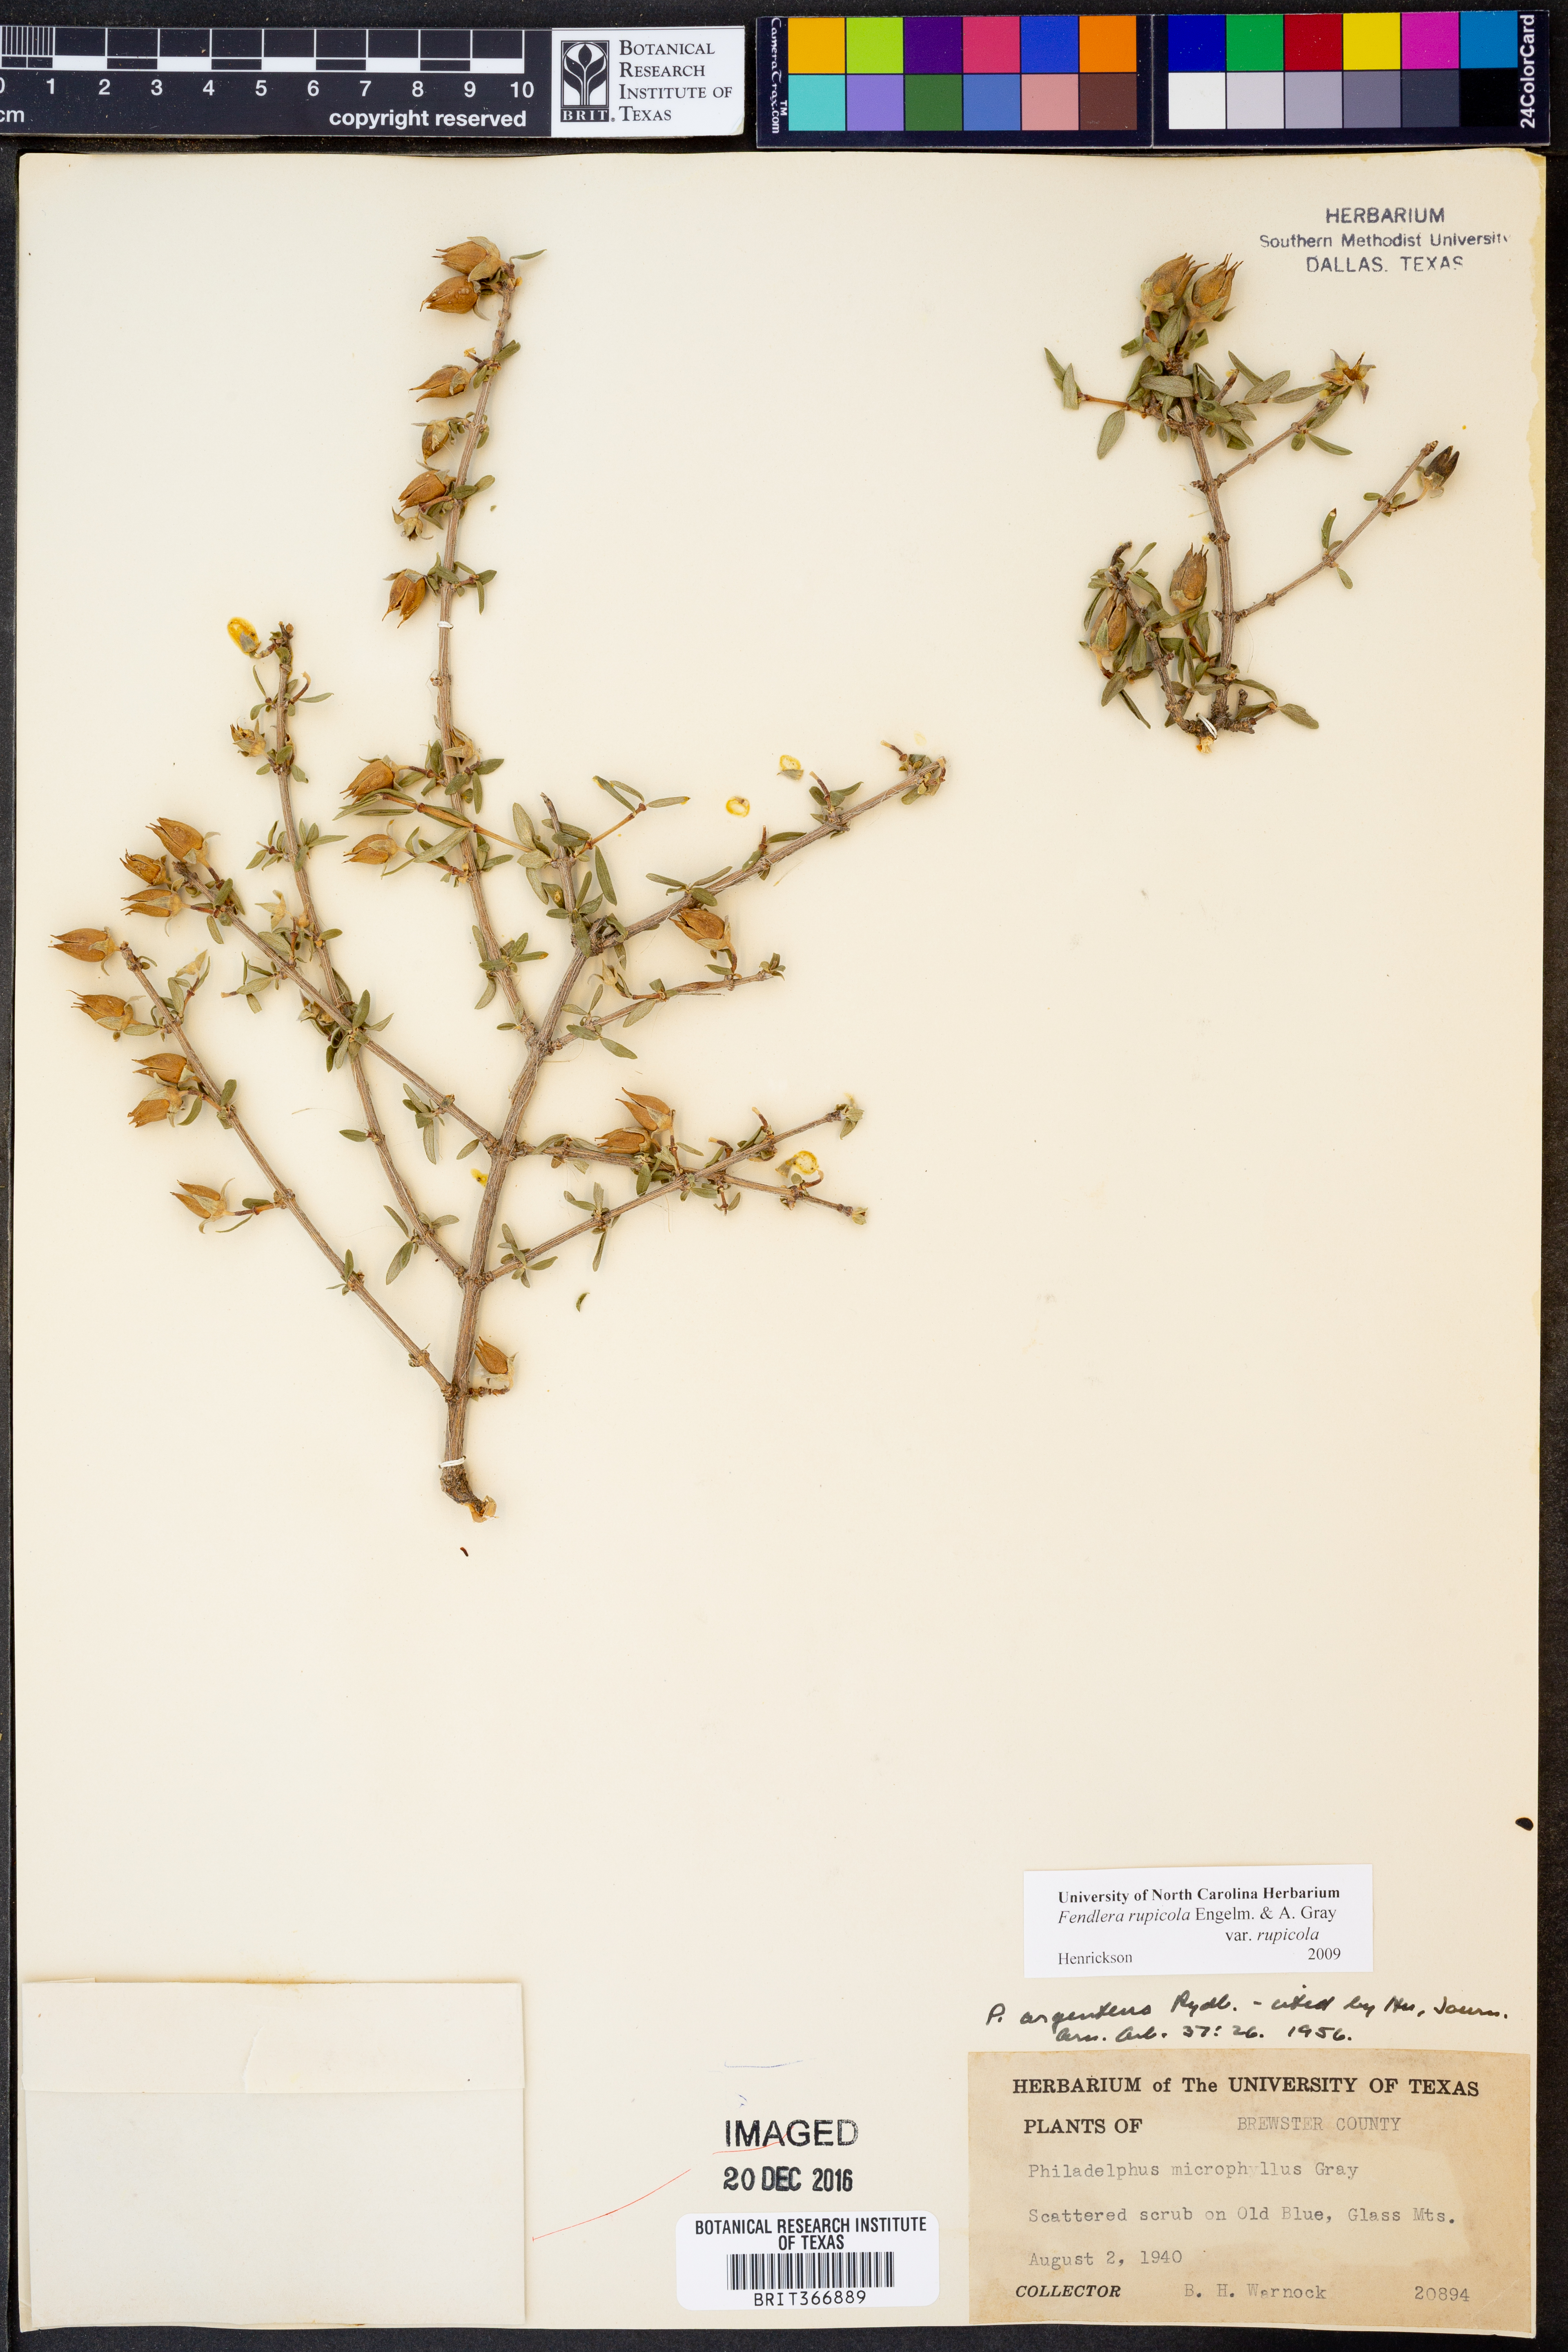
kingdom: Plantae
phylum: Tracheophyta
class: Magnoliopsida
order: Cornales
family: Hydrangeaceae
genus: Fendlera
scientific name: Fendlera rupicola
